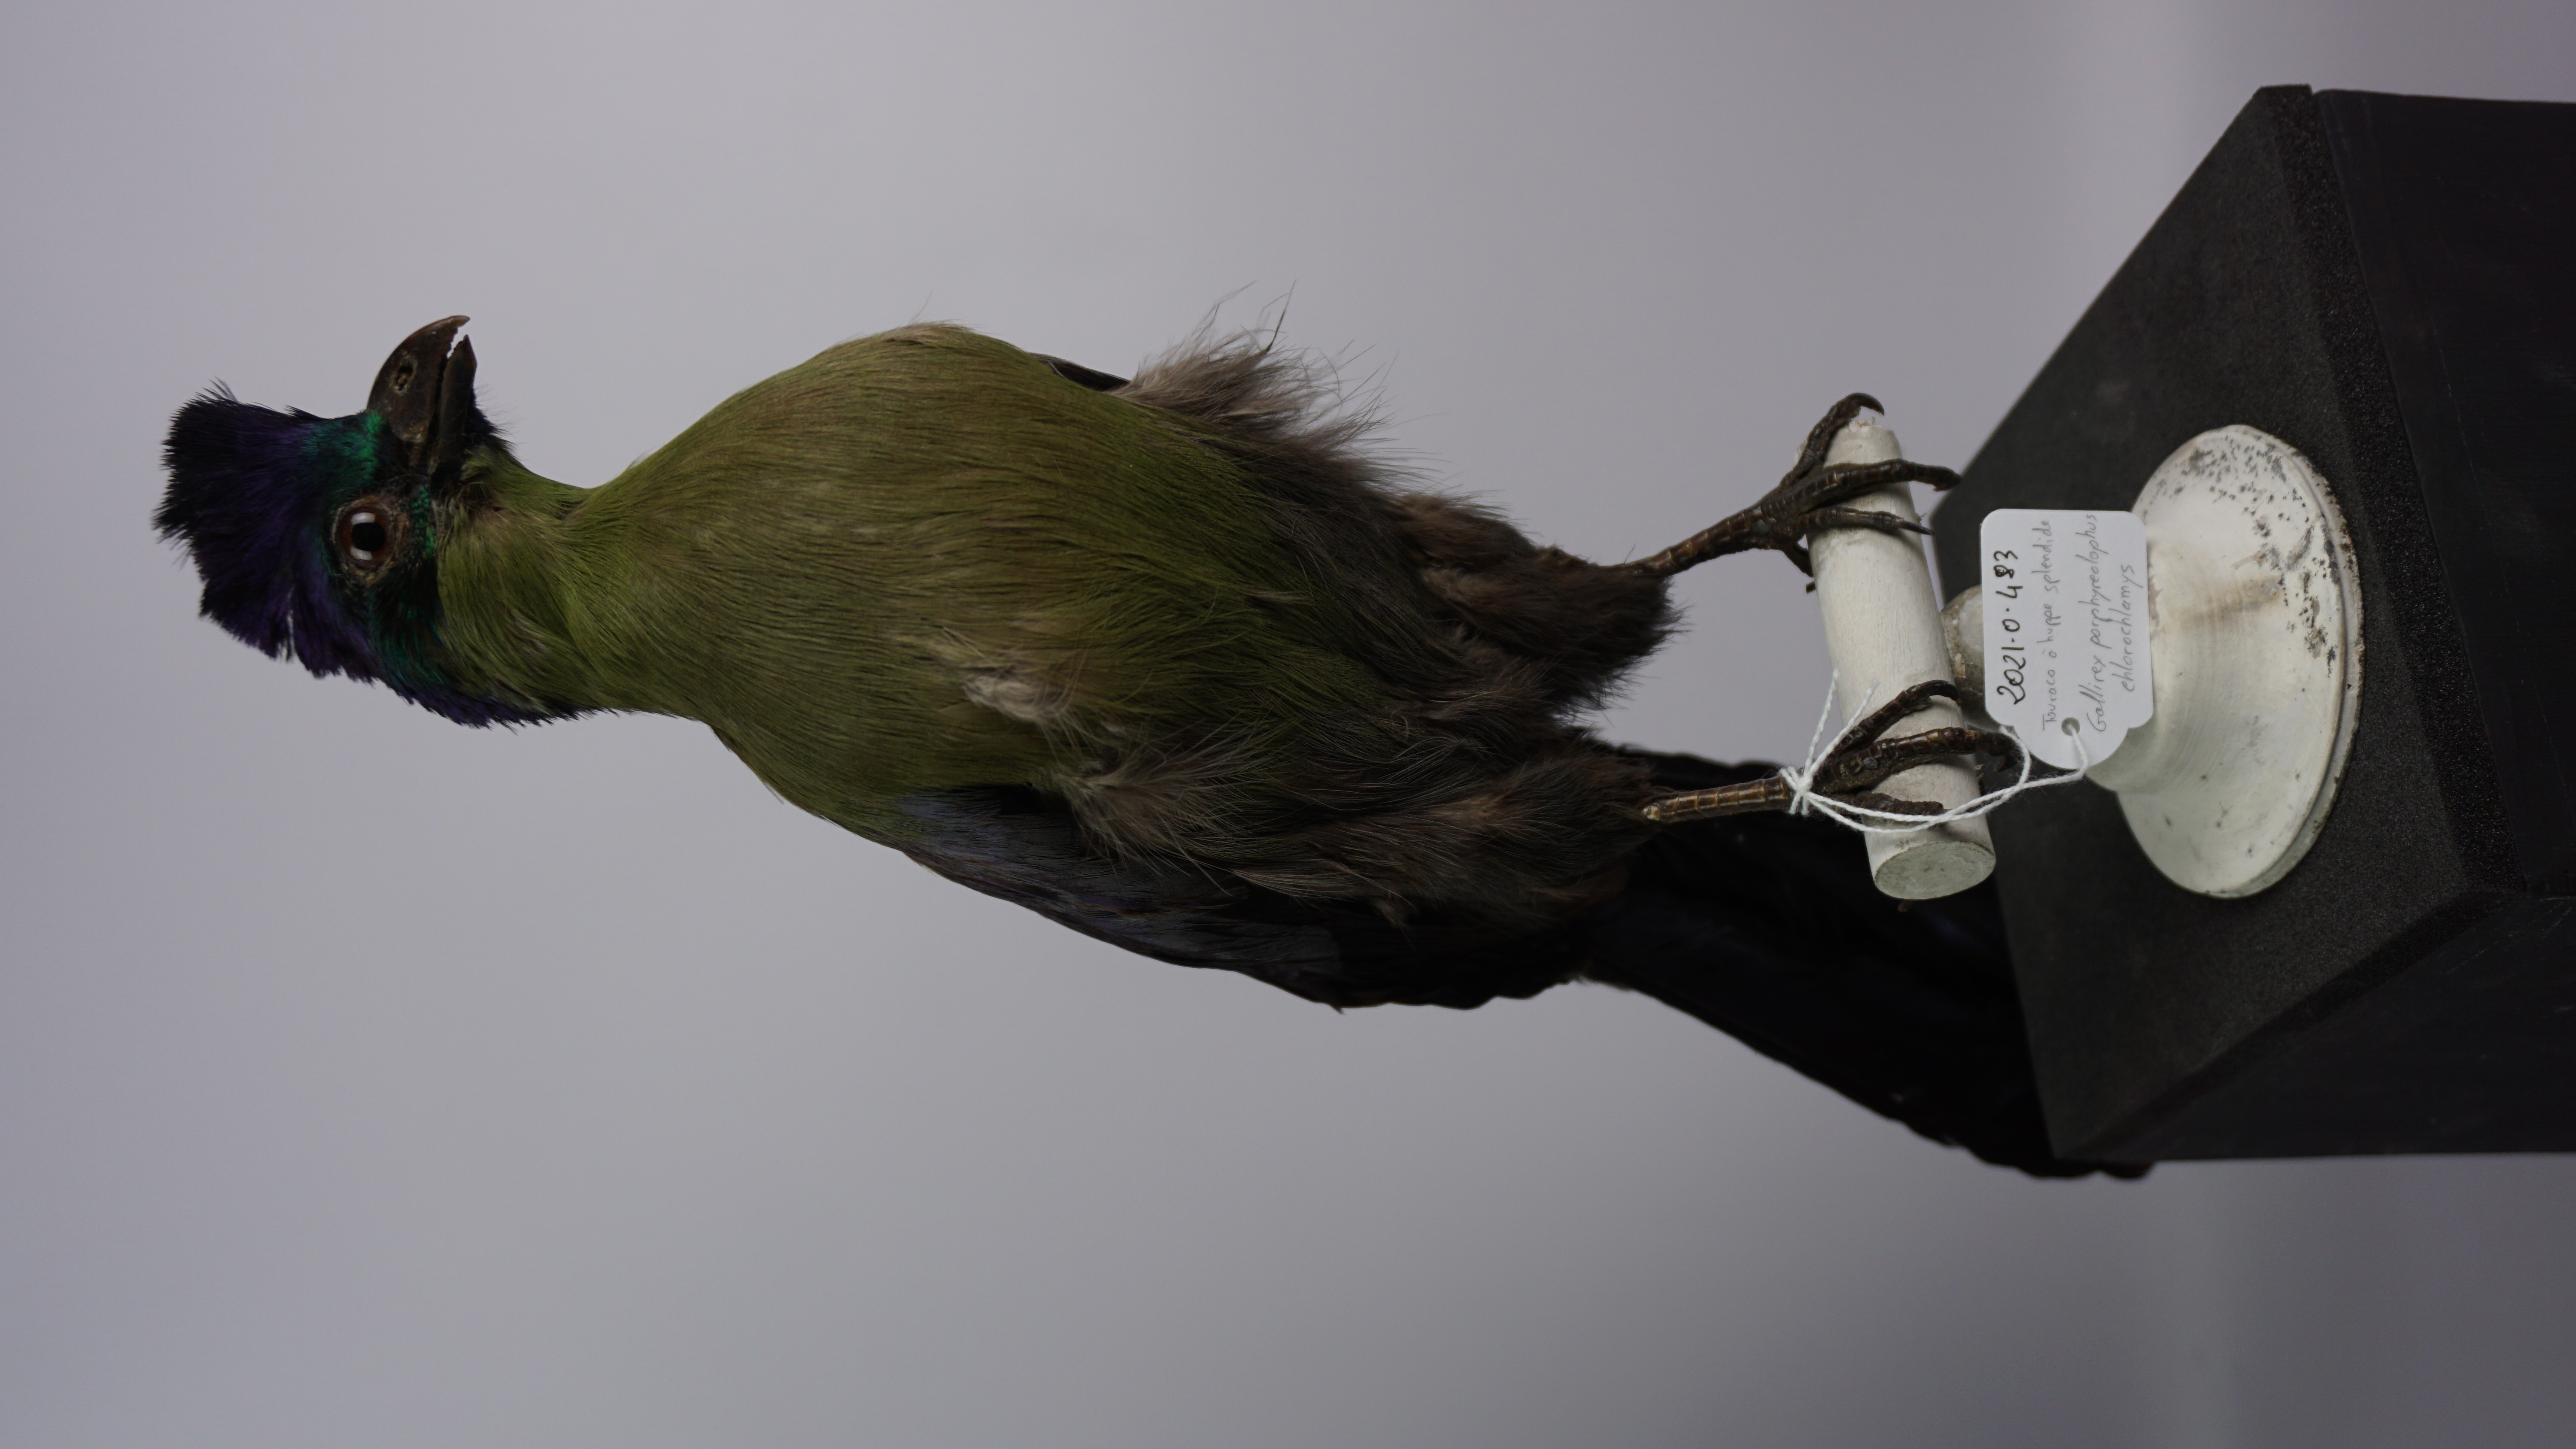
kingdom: Animalia
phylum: Chordata
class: Aves
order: Musophagiformes
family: Musophagidae
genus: Tauraco
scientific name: Tauraco porphyreolophus
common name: Purple-crested turaco
